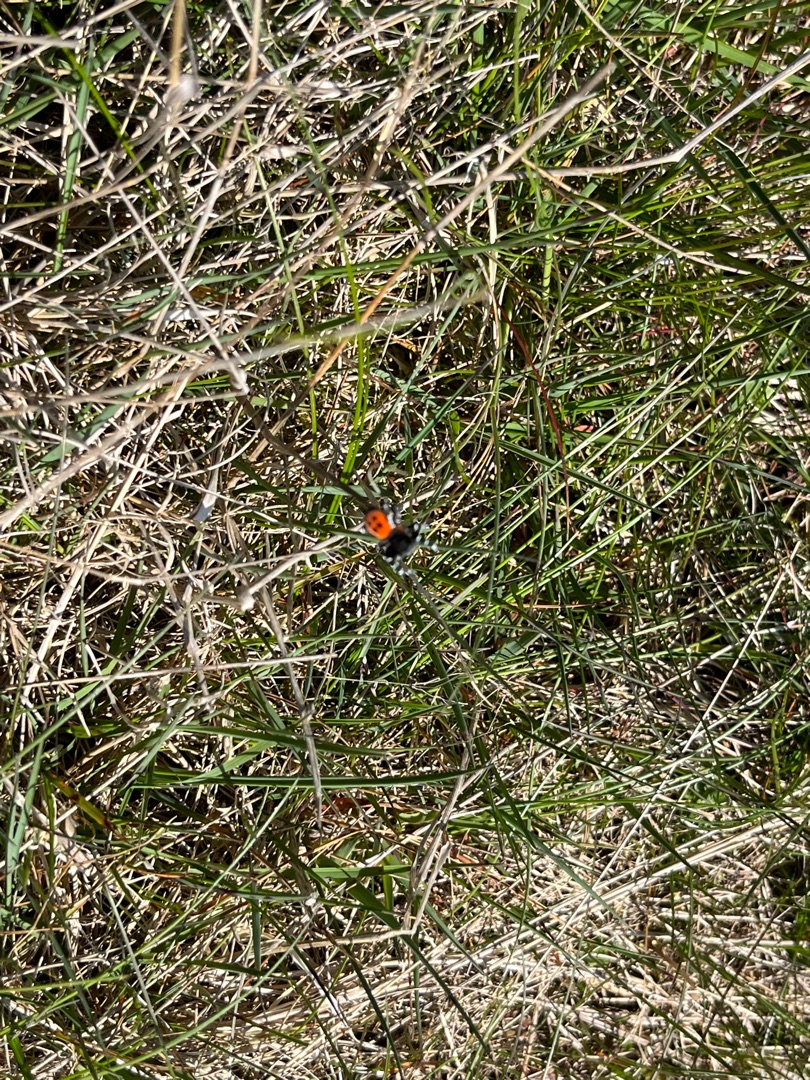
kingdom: Animalia
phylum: Arthropoda
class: Arachnida
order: Araneae
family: Eresidae
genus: Eresus
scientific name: Eresus sandaliatus
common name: Mariehøneedderkop
